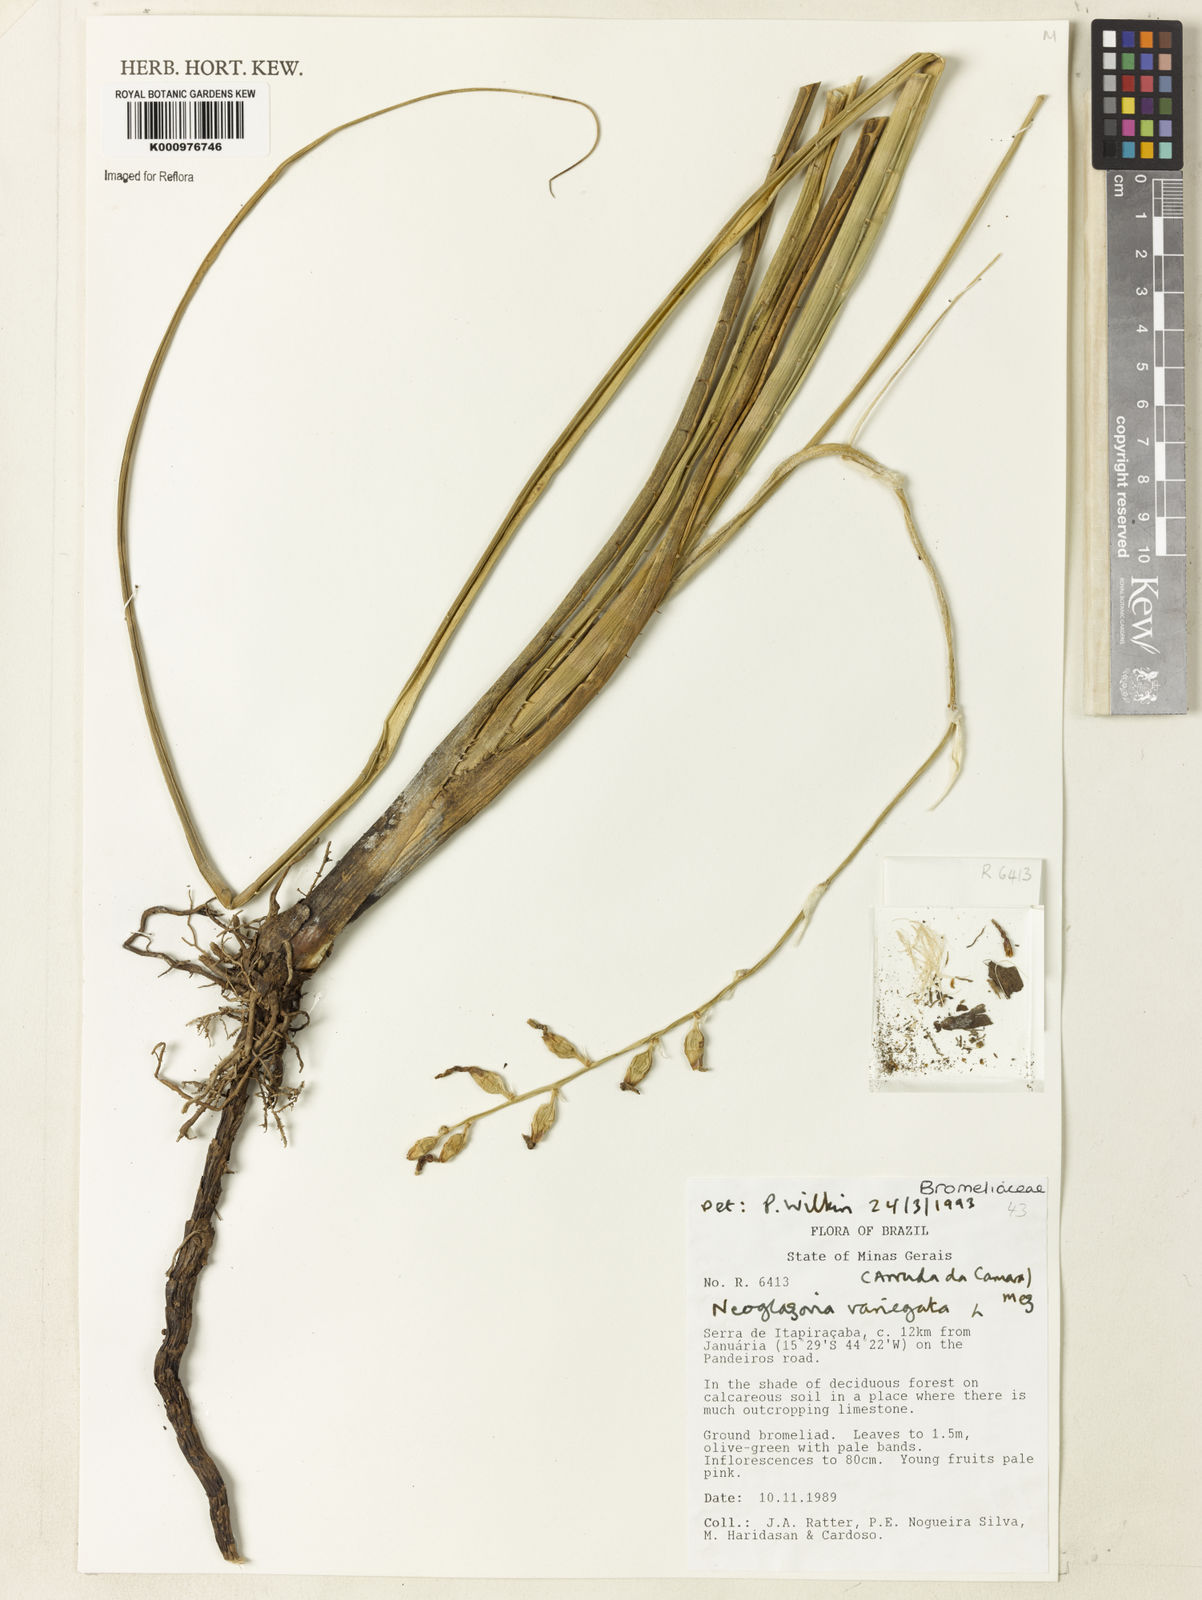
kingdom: Plantae
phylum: Tracheophyta
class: Liliopsida
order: Poales
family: Bromeliaceae
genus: Neoglaziovia
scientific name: Neoglaziovia variegata
